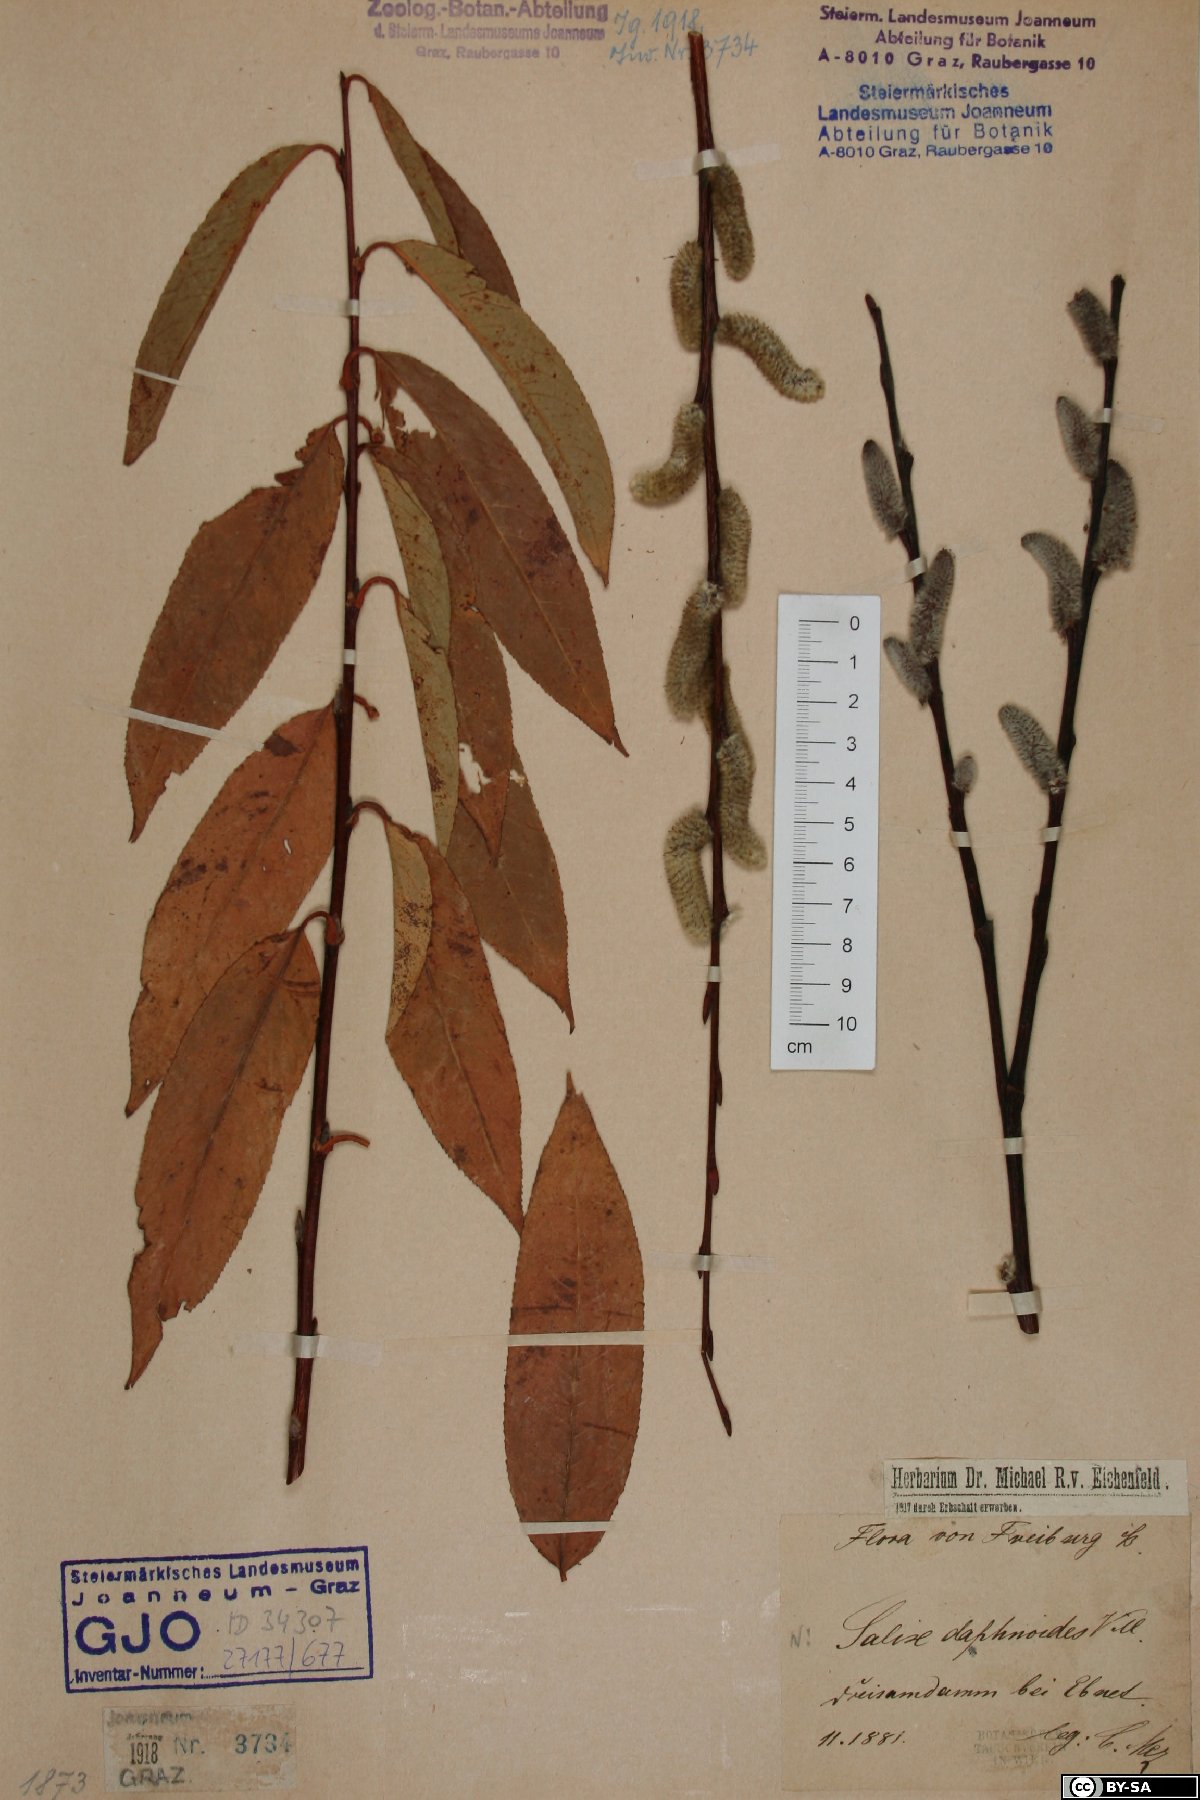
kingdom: Plantae
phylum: Tracheophyta
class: Magnoliopsida
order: Malpighiales
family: Salicaceae
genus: Salix
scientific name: Salix daphnoides
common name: European violet-willow
